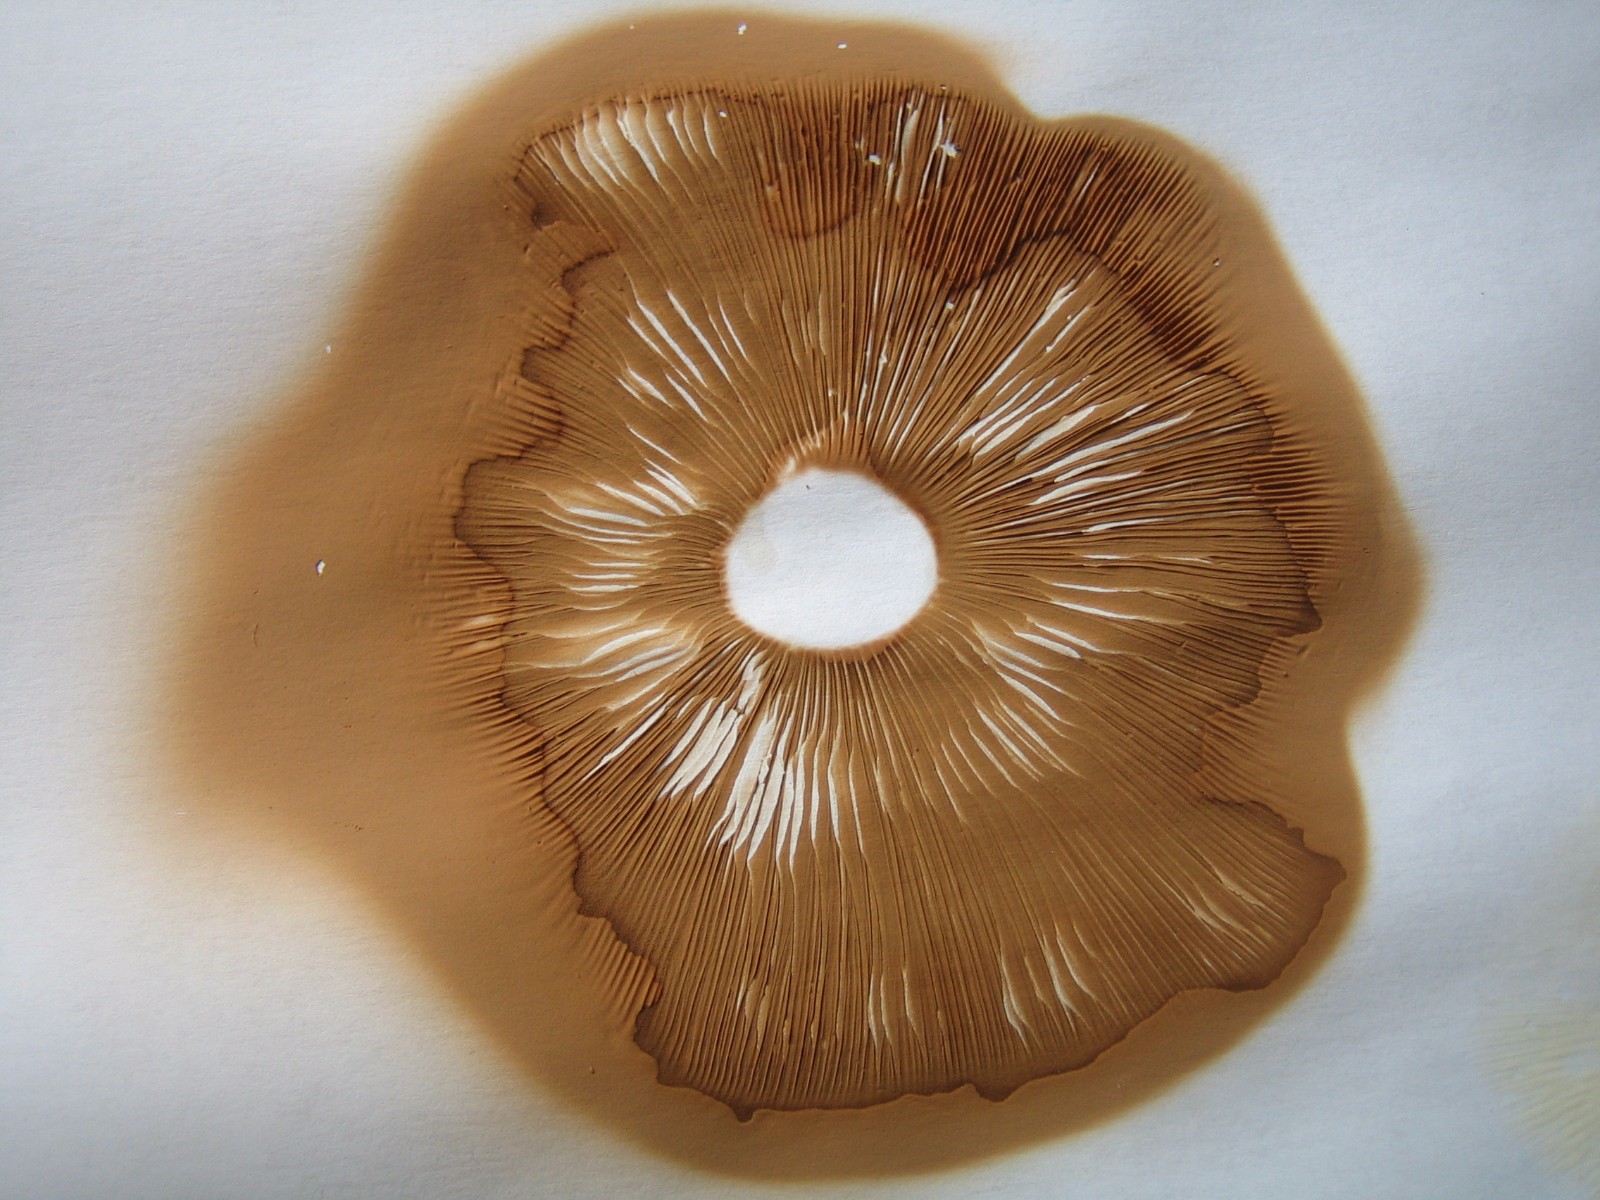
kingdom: Fungi
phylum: Basidiomycota
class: Agaricomycetes
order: Agaricales
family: Pluteaceae
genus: Pluteus
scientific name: Pluteus cervinus
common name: sodfarvet skærmhat
